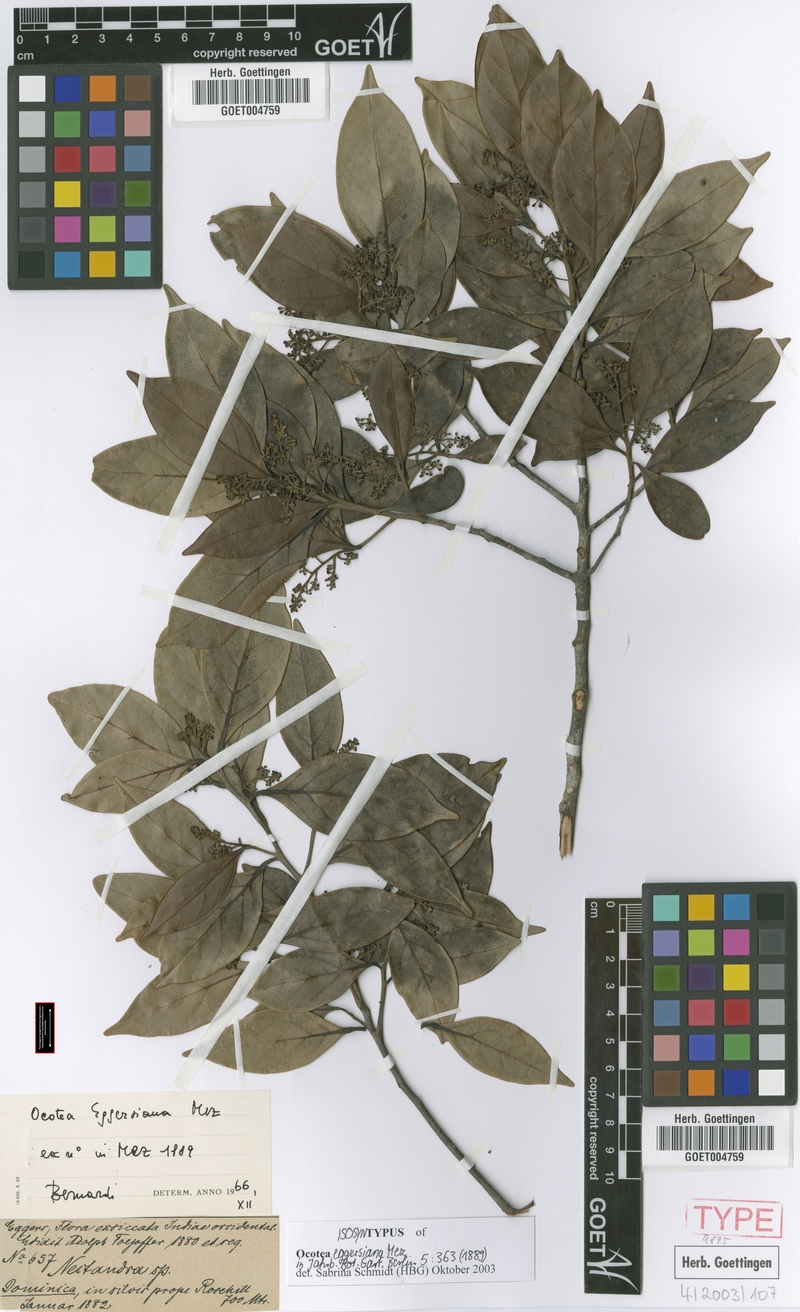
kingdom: Plantae
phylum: Tracheophyta
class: Magnoliopsida
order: Laurales
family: Lauraceae
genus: Ocotea
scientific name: Ocotea eggersiana
